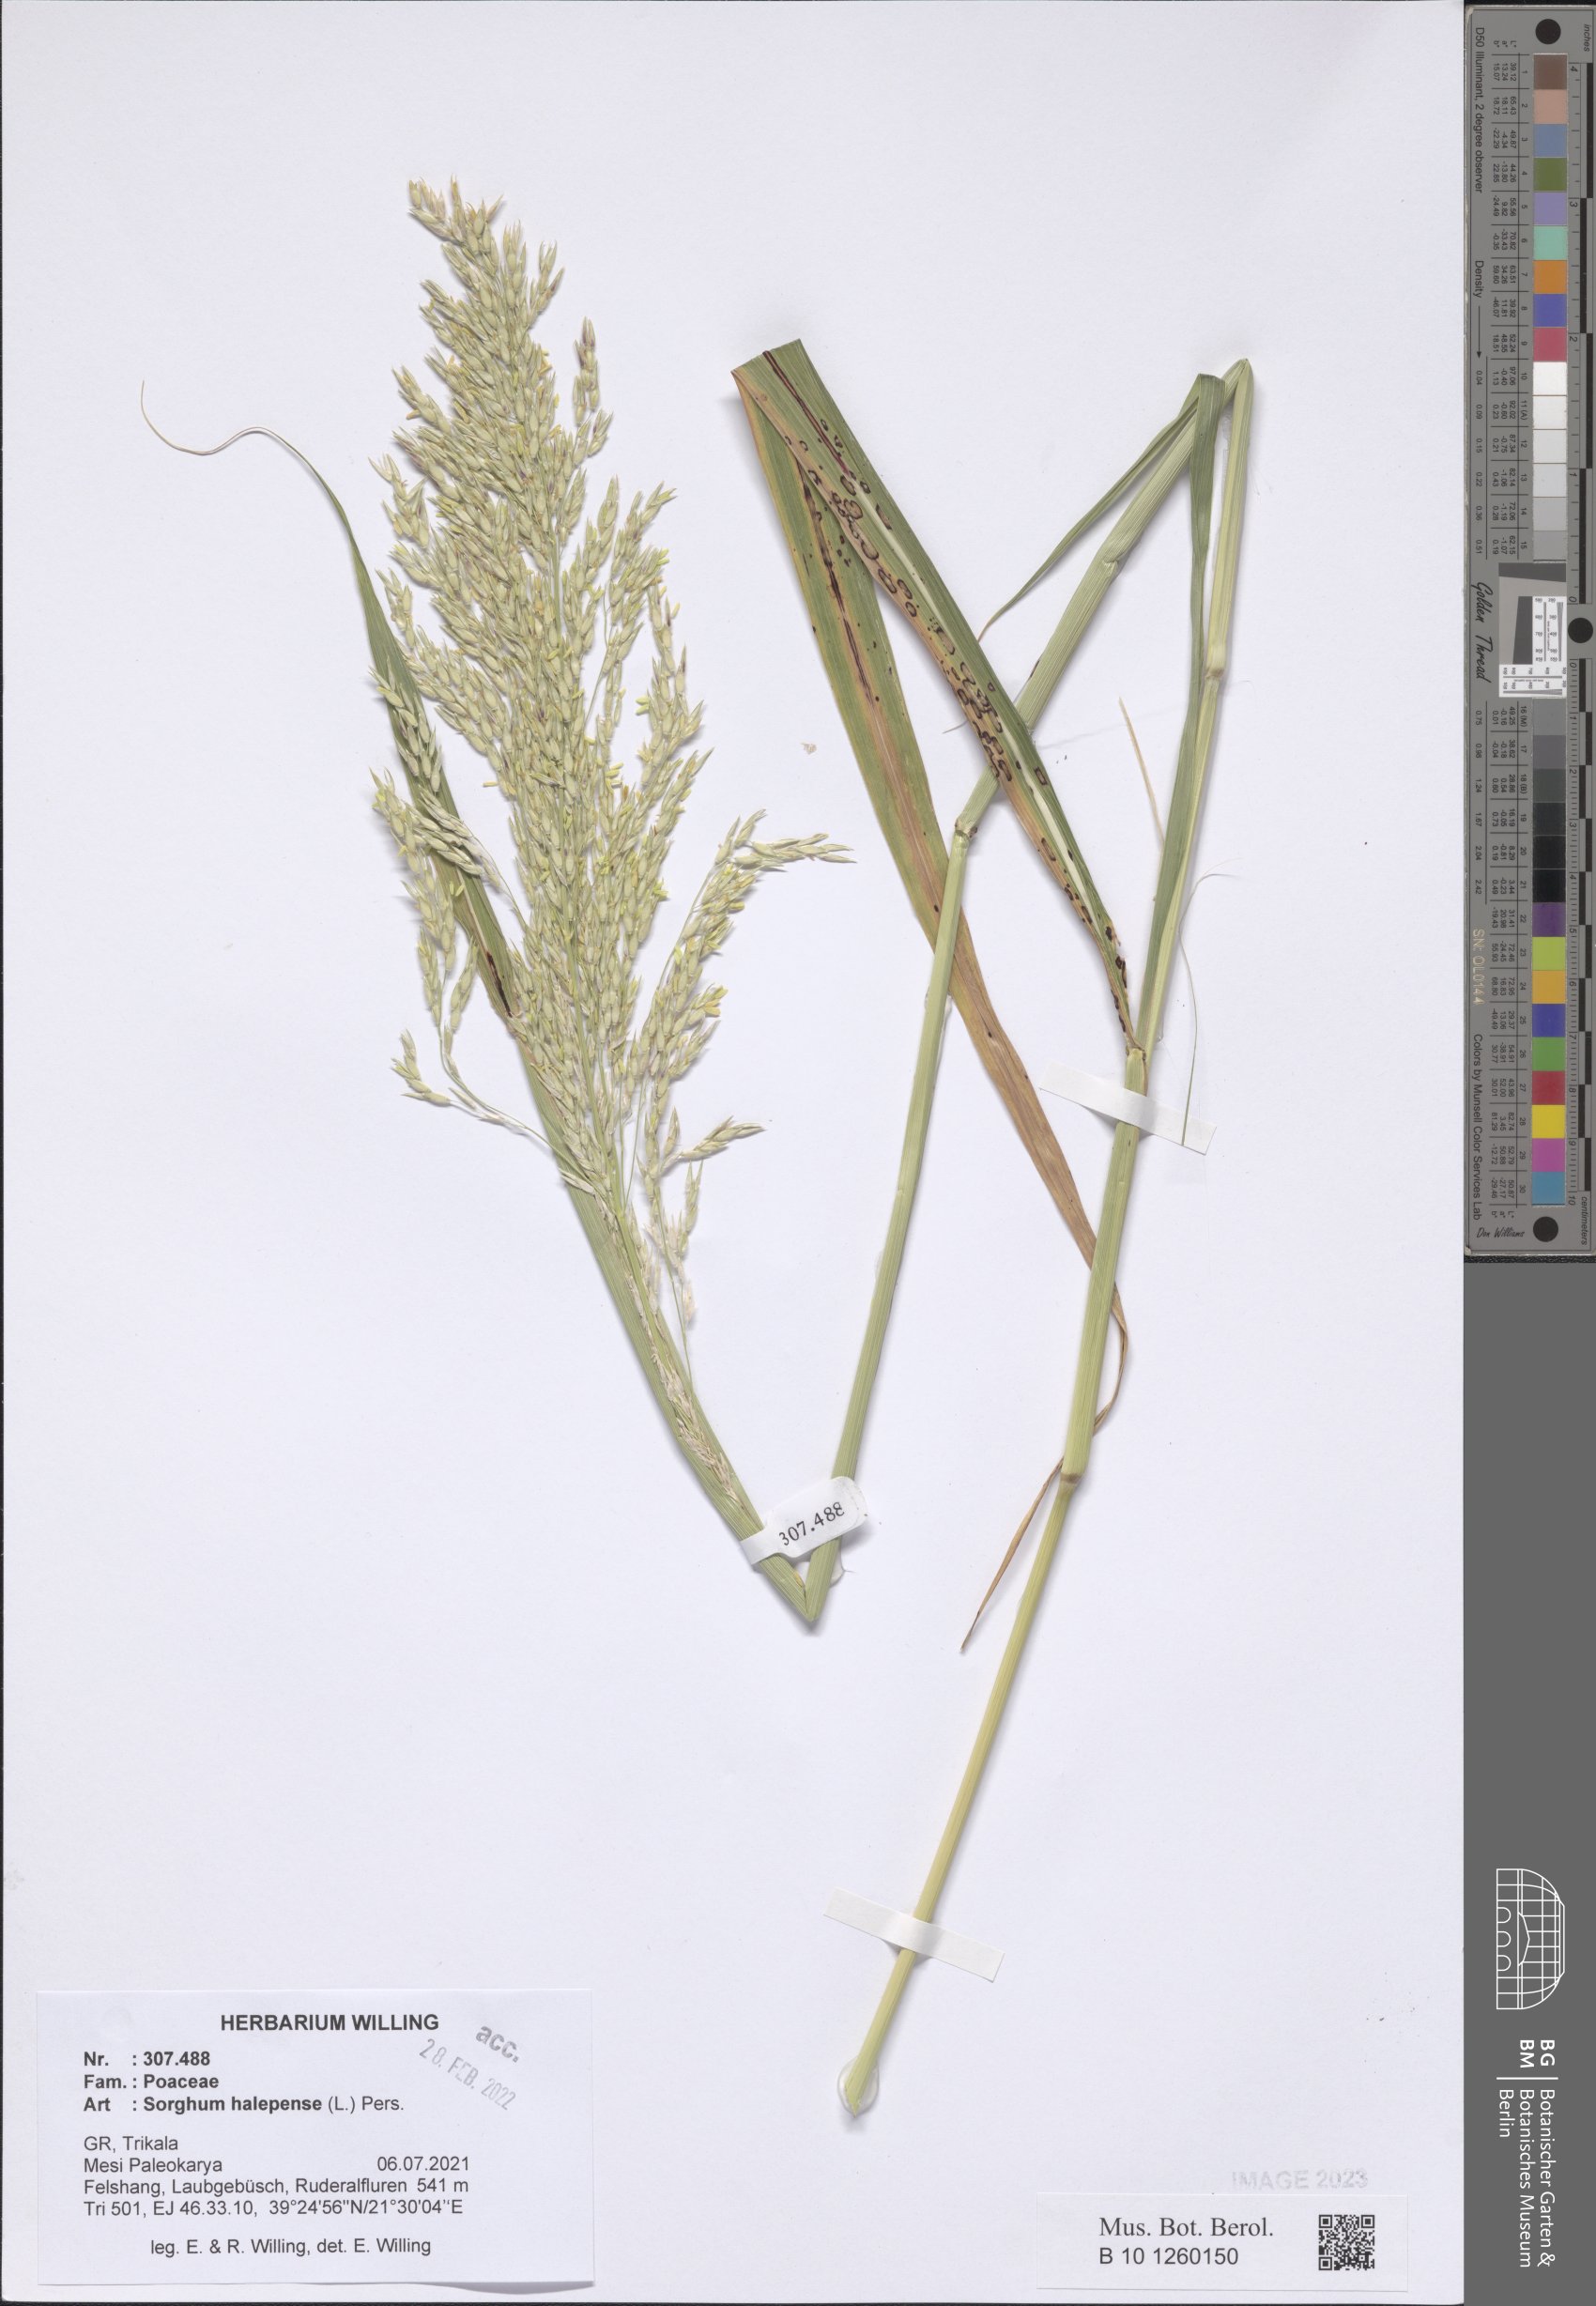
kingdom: Plantae
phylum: Tracheophyta
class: Liliopsida
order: Poales
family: Poaceae
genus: Sorghum
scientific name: Sorghum halepense
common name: Johnson-grass
